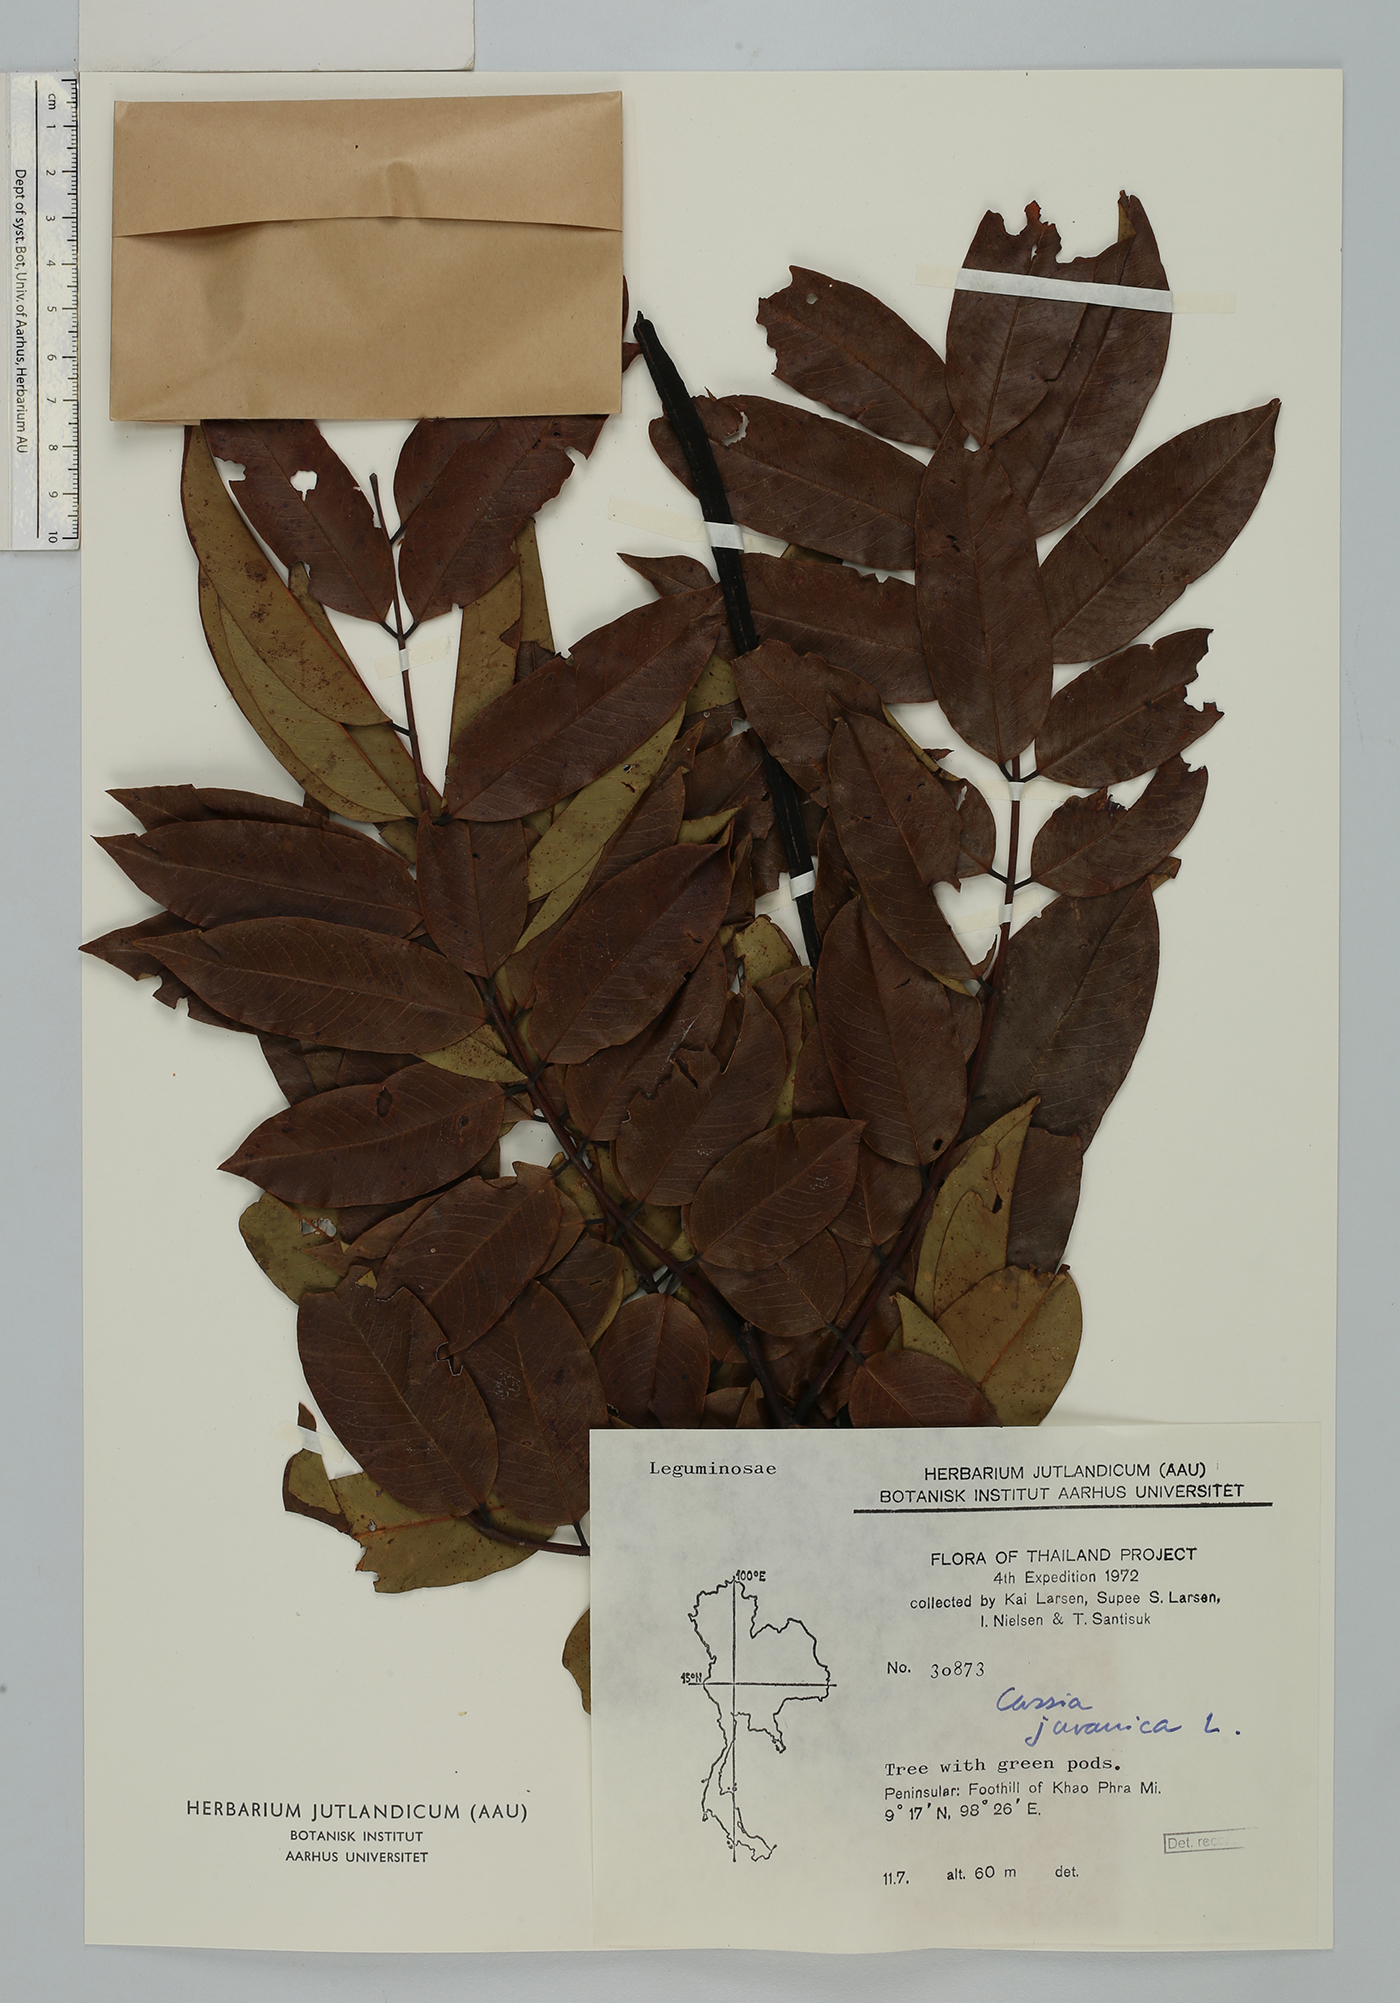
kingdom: Plantae
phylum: Tracheophyta
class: Magnoliopsida
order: Fabales
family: Fabaceae
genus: Cassia
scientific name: Cassia javanica
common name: Apple blossom
